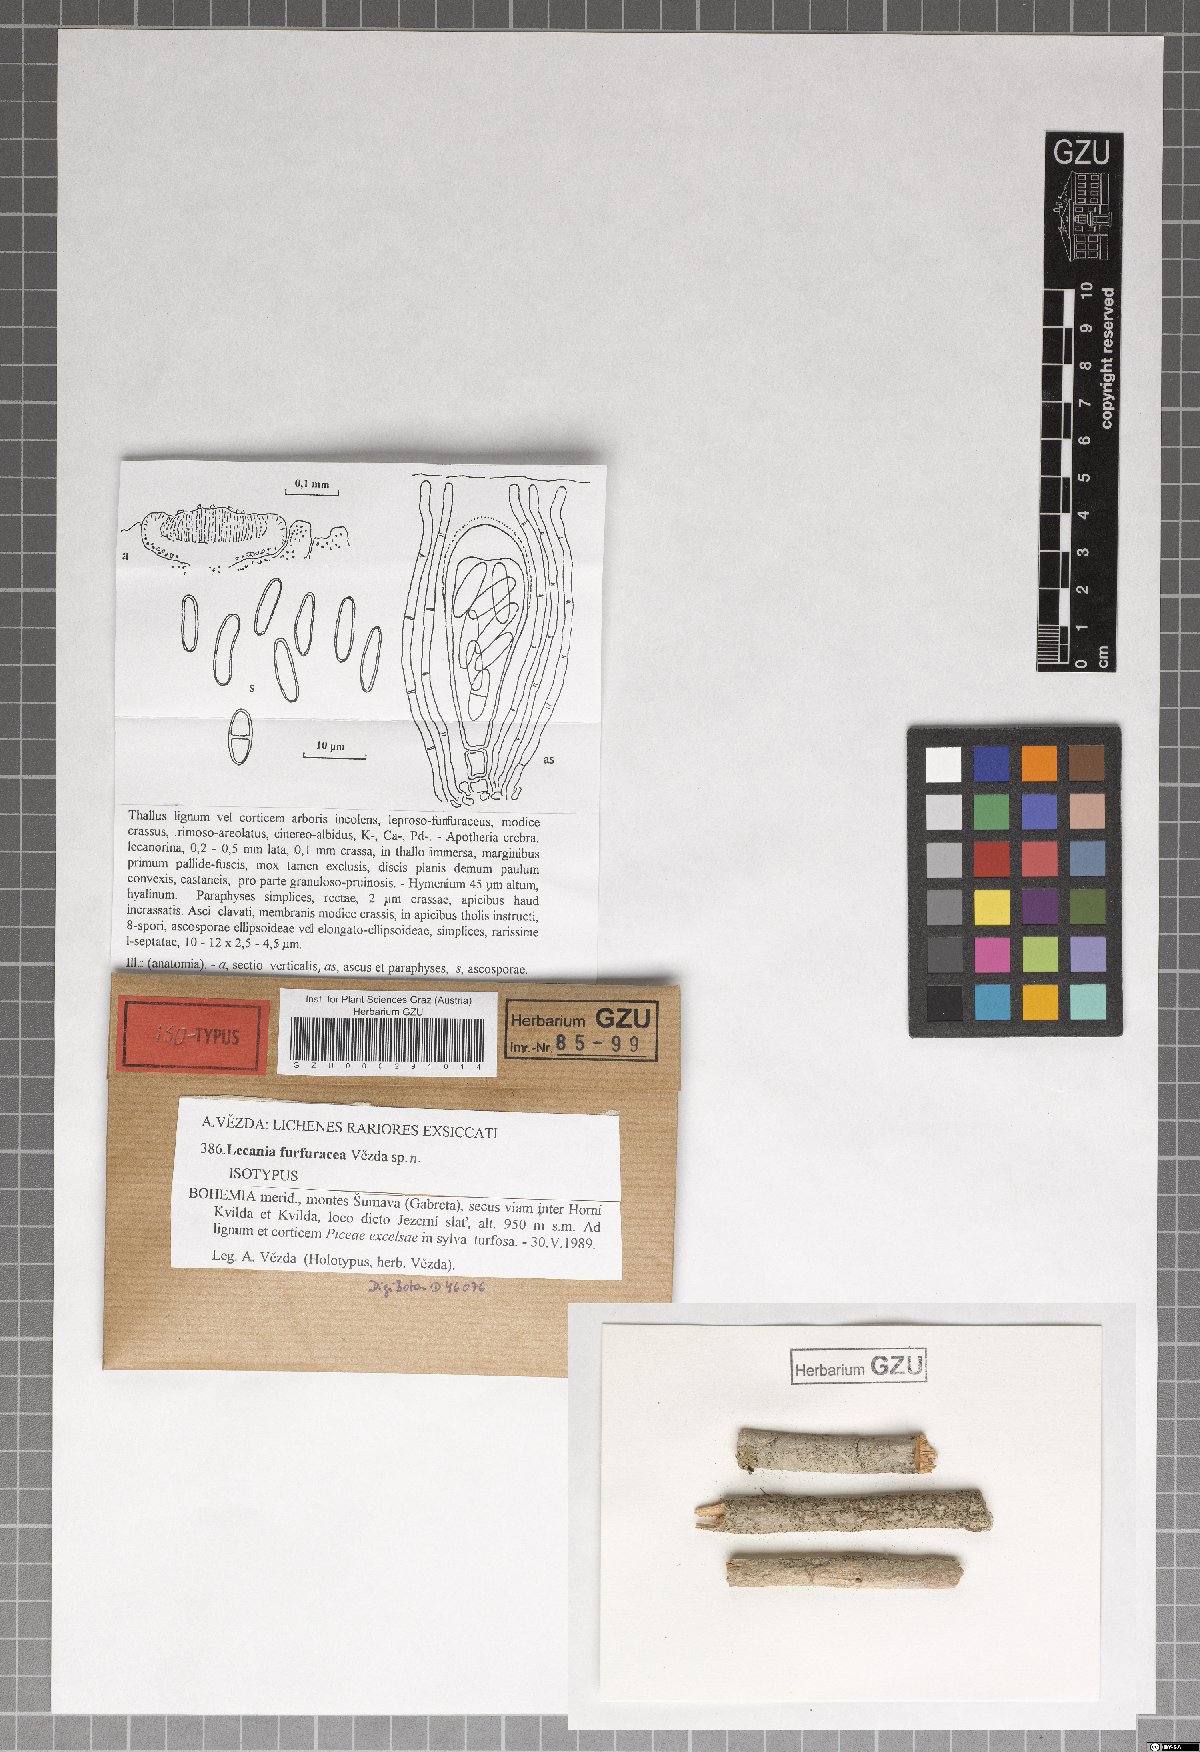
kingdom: Fungi
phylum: Ascomycota
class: Lecanoromycetes
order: Lecanorales
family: Ramalinaceae
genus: Lecania
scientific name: Lecania furfuracea
